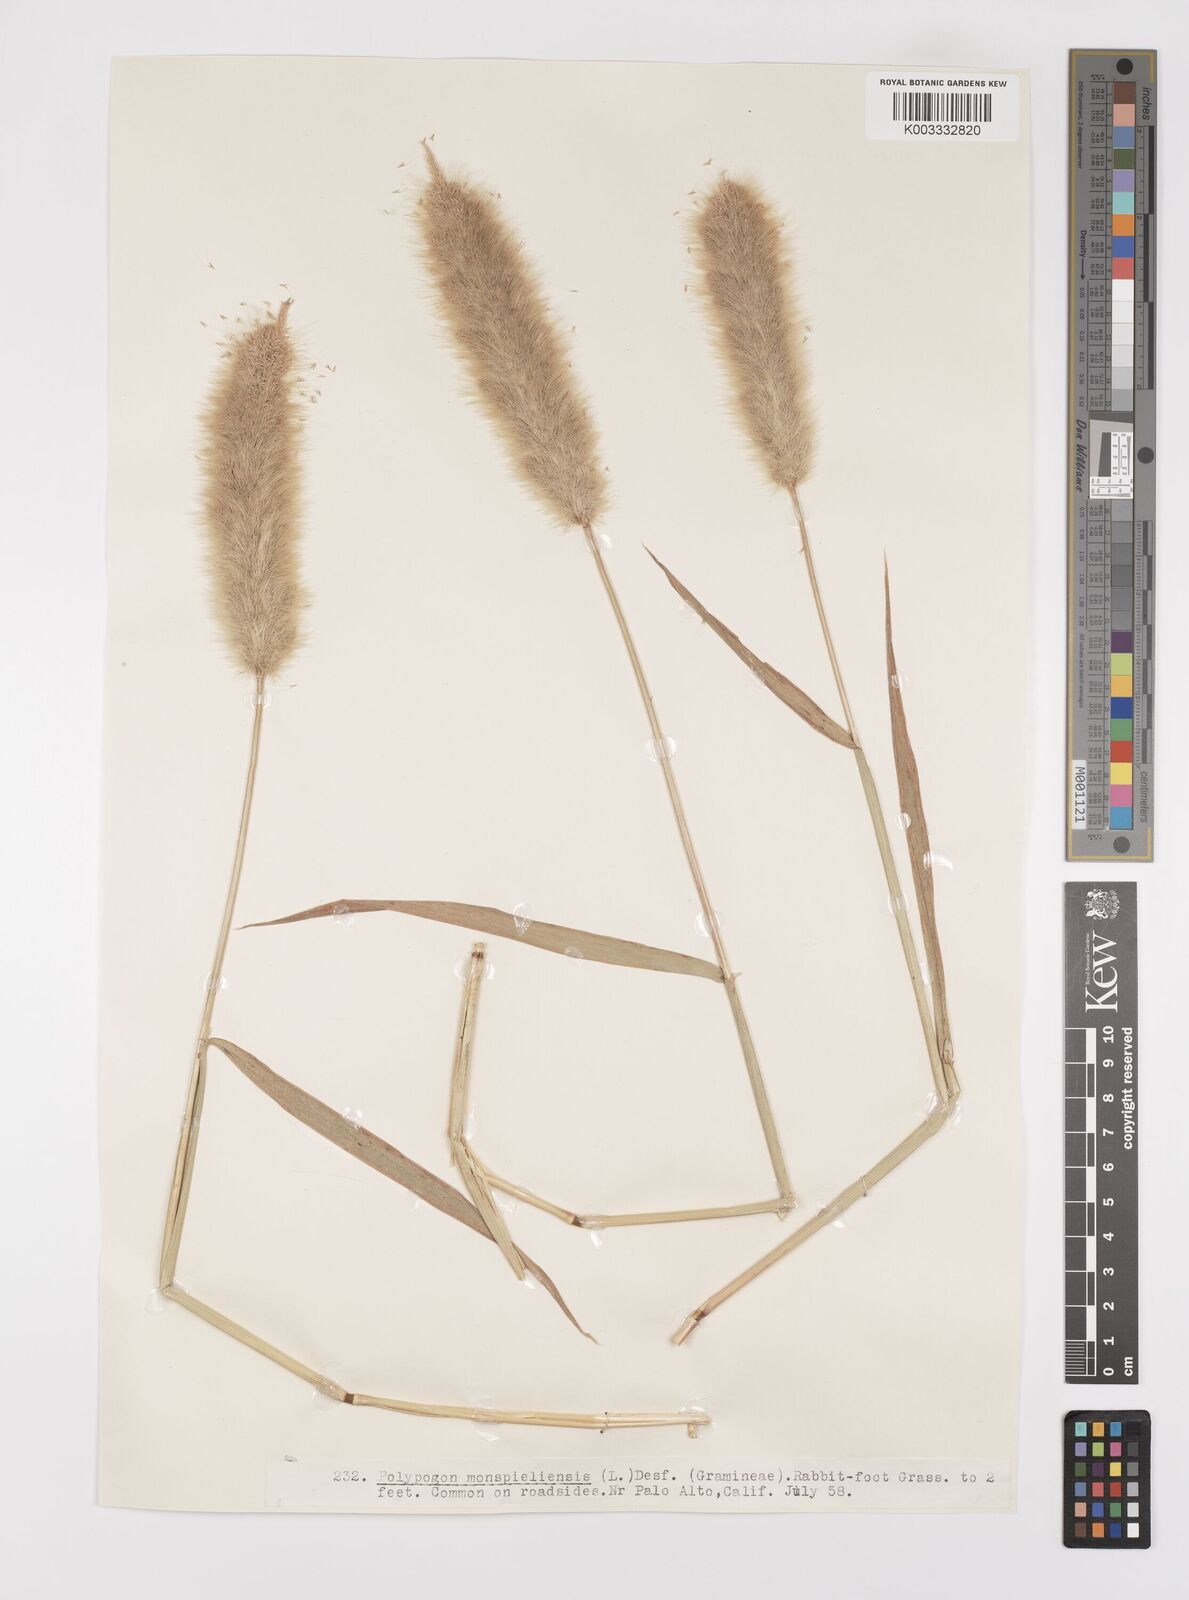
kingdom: Plantae
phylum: Tracheophyta
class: Liliopsida
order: Poales
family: Poaceae
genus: Polypogon
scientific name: Polypogon monspeliensis
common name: Annual rabbitsfoot grass
